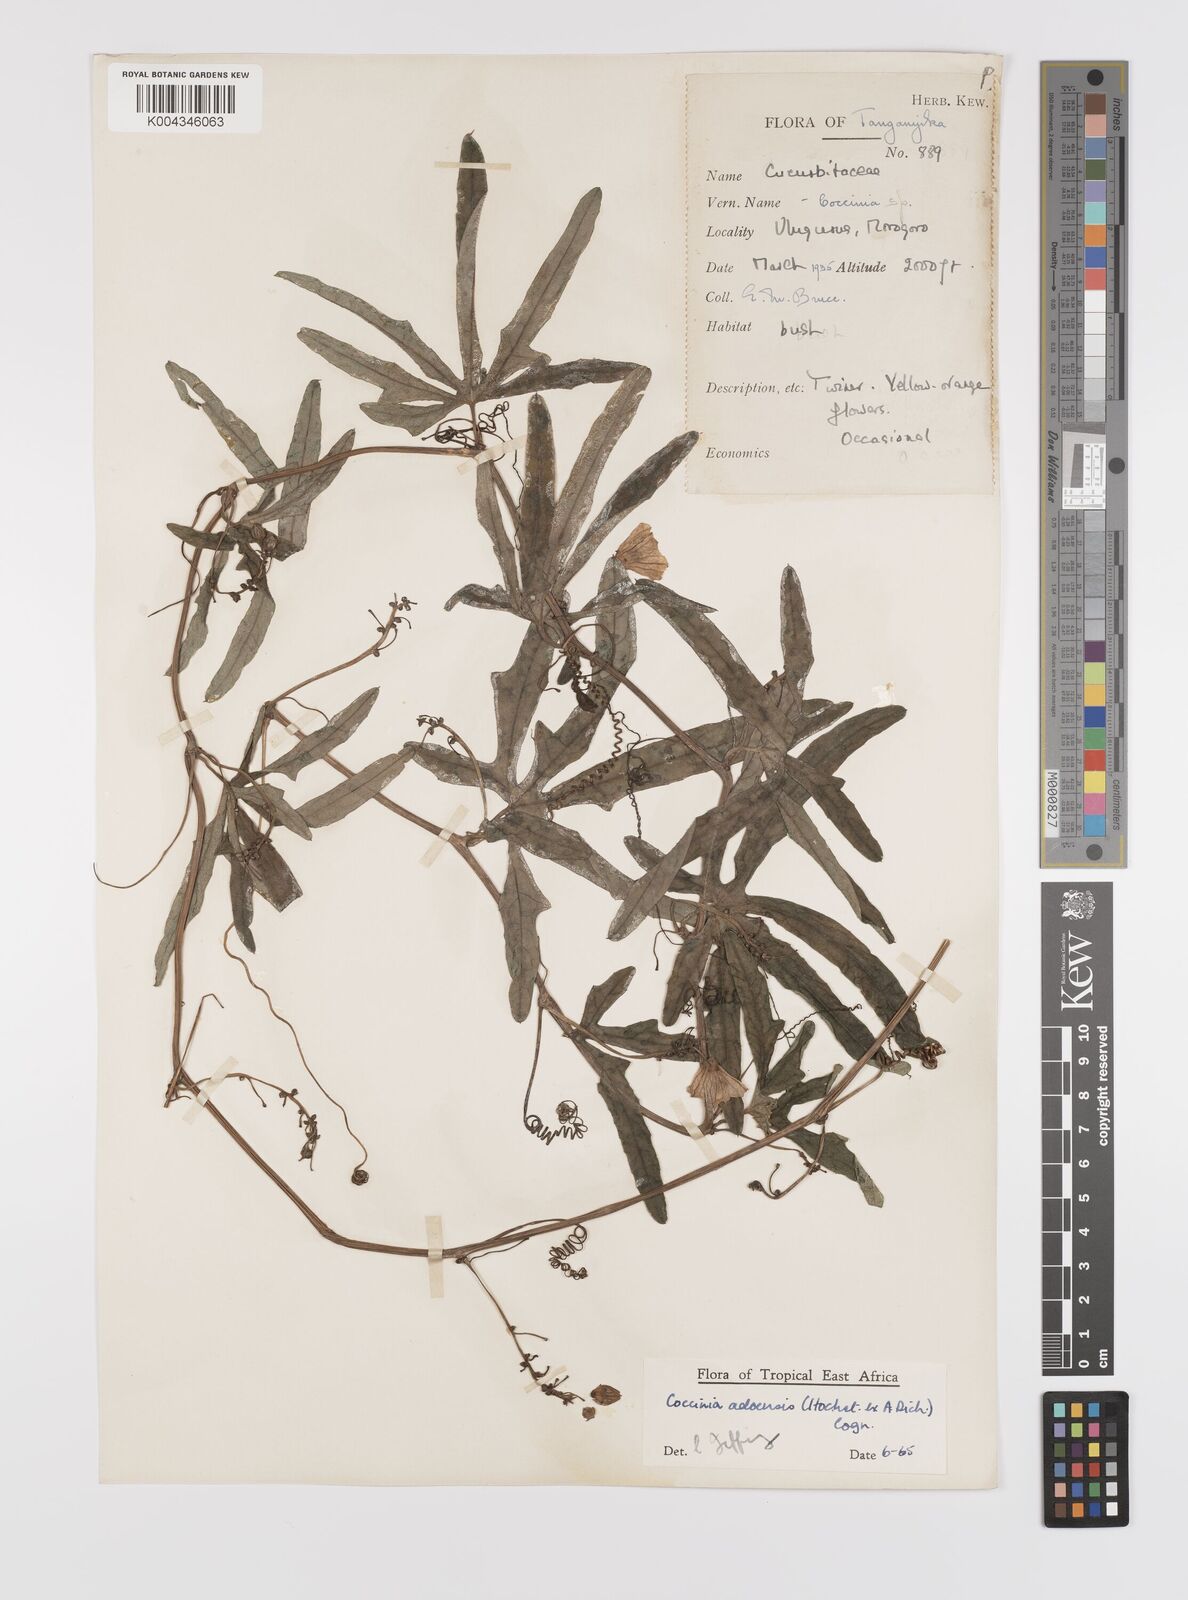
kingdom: Plantae
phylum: Tracheophyta
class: Magnoliopsida
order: Cucurbitales
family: Cucurbitaceae
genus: Coccinia
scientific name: Coccinia adoensis
